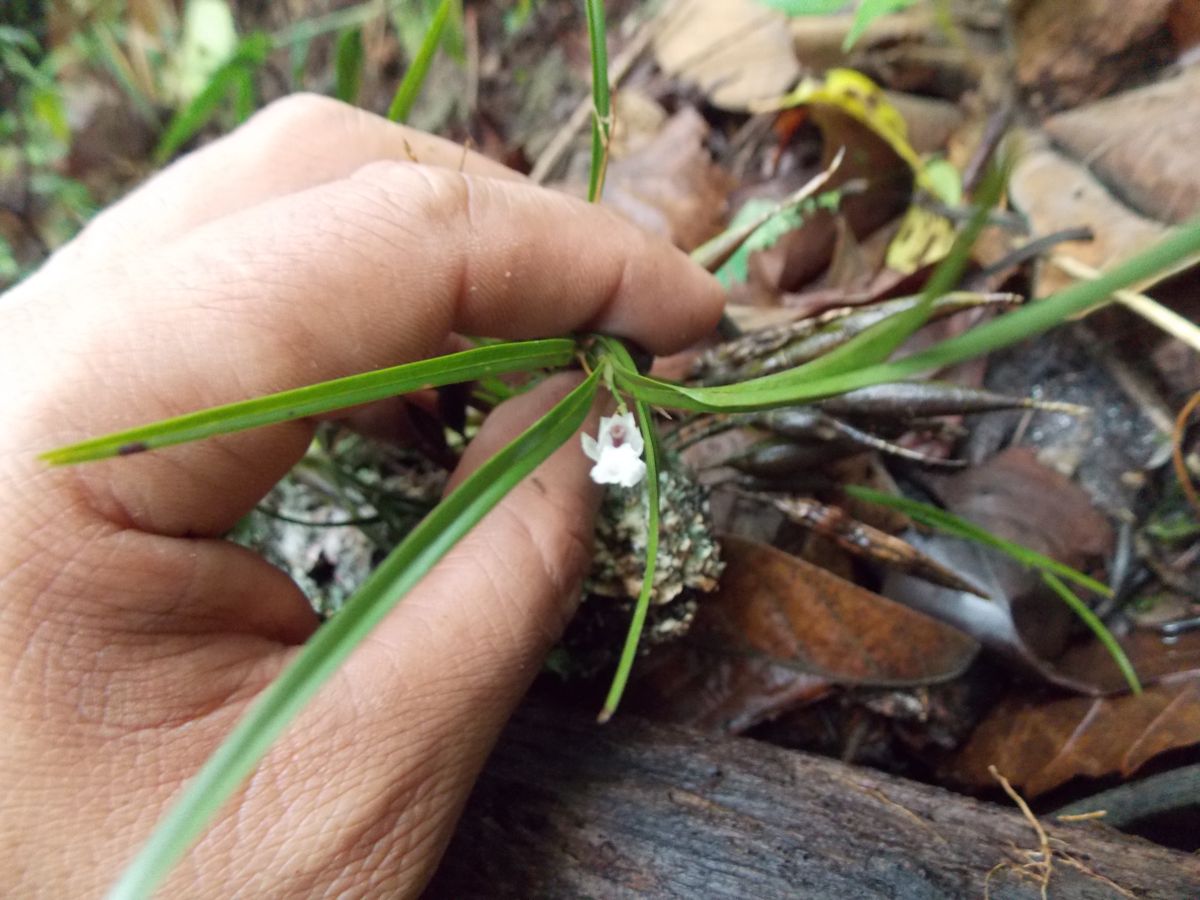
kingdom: Plantae
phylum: Tracheophyta
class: Liliopsida
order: Asparagales
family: Orchidaceae
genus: Scaphyglottis
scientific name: Scaphyglottis crurigera
